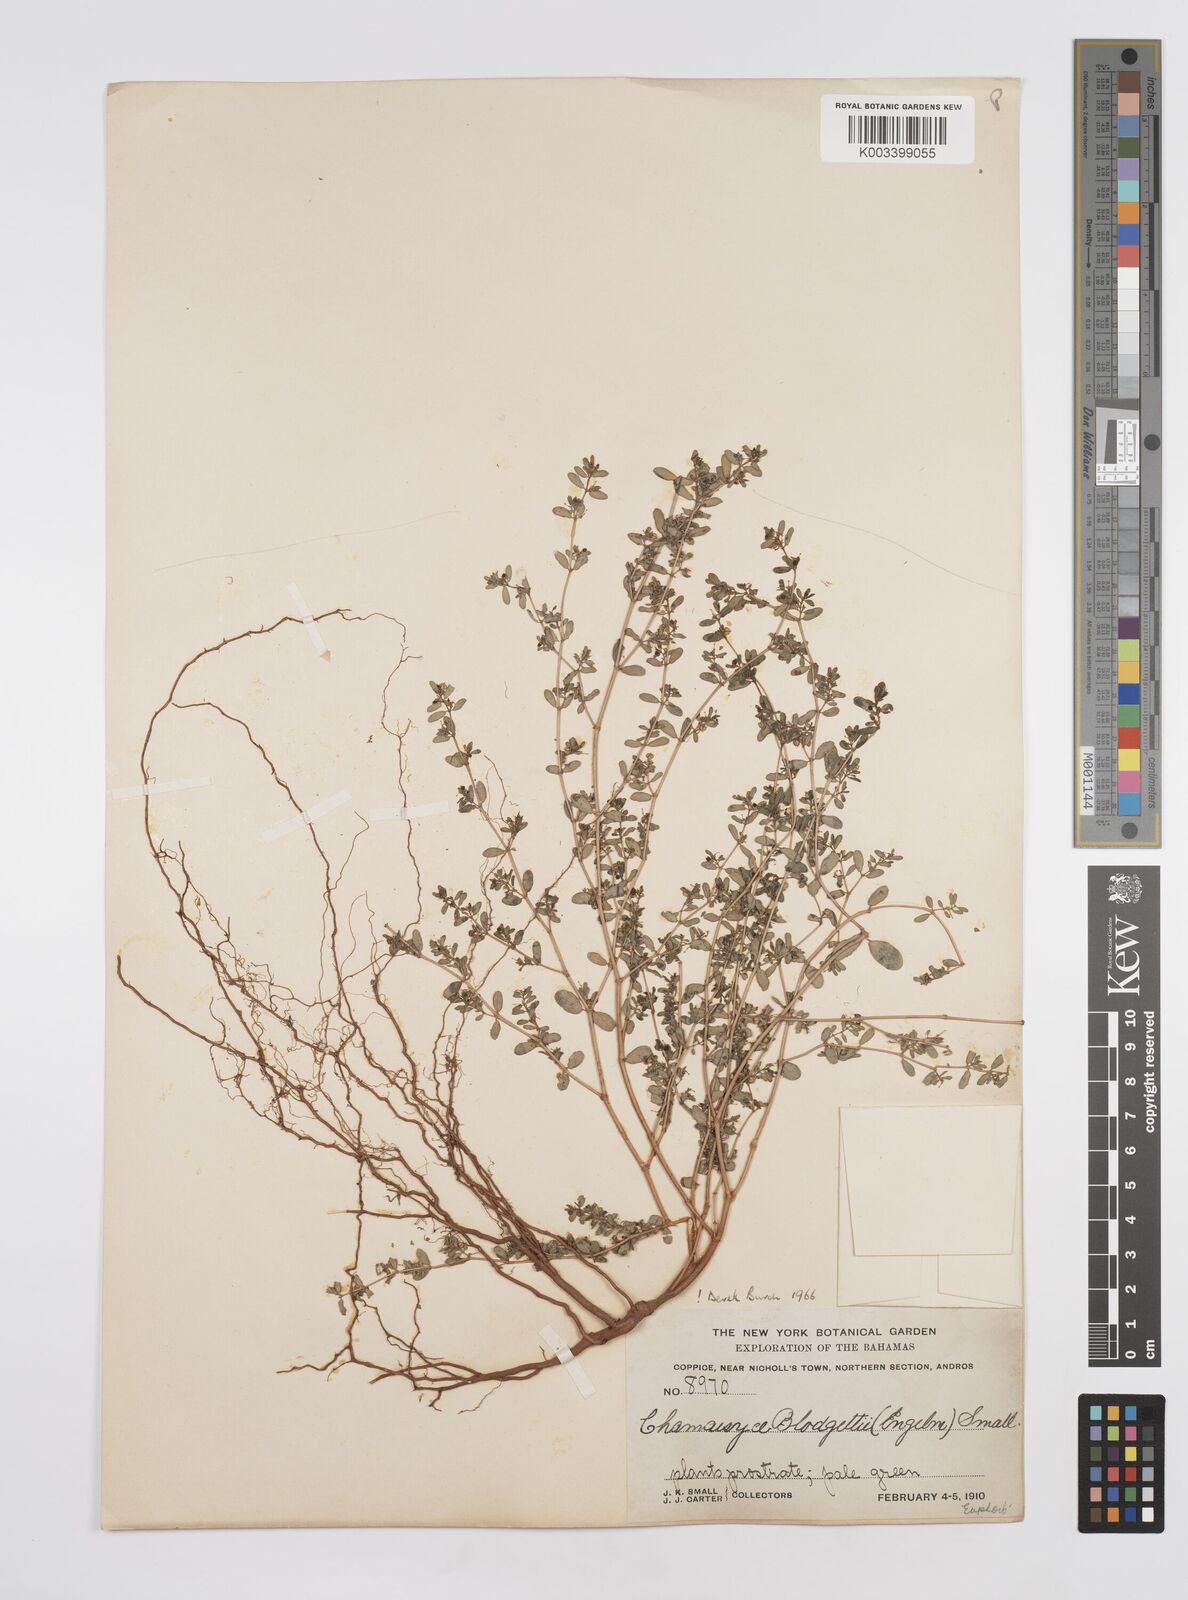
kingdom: Plantae
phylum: Tracheophyta
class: Magnoliopsida
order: Malpighiales
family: Euphorbiaceae
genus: Euphorbia
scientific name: Euphorbia blodgettii
